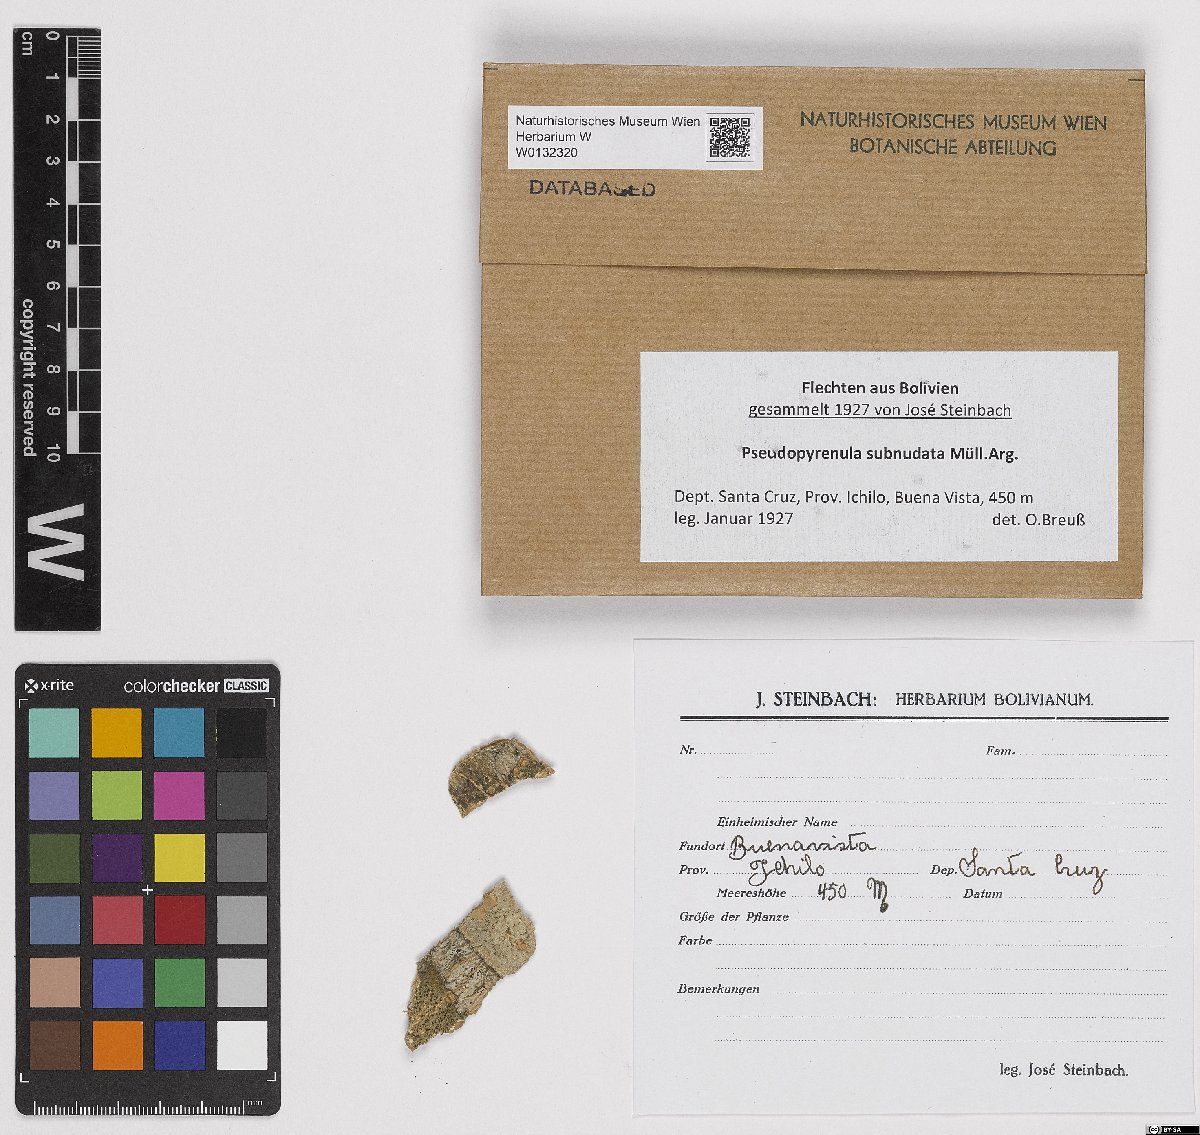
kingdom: Fungi
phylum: Ascomycota
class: Dothideomycetes
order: Trypetheliales
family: Trypetheliaceae
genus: Pseudopyrenula
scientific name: Pseudopyrenula subnudata
